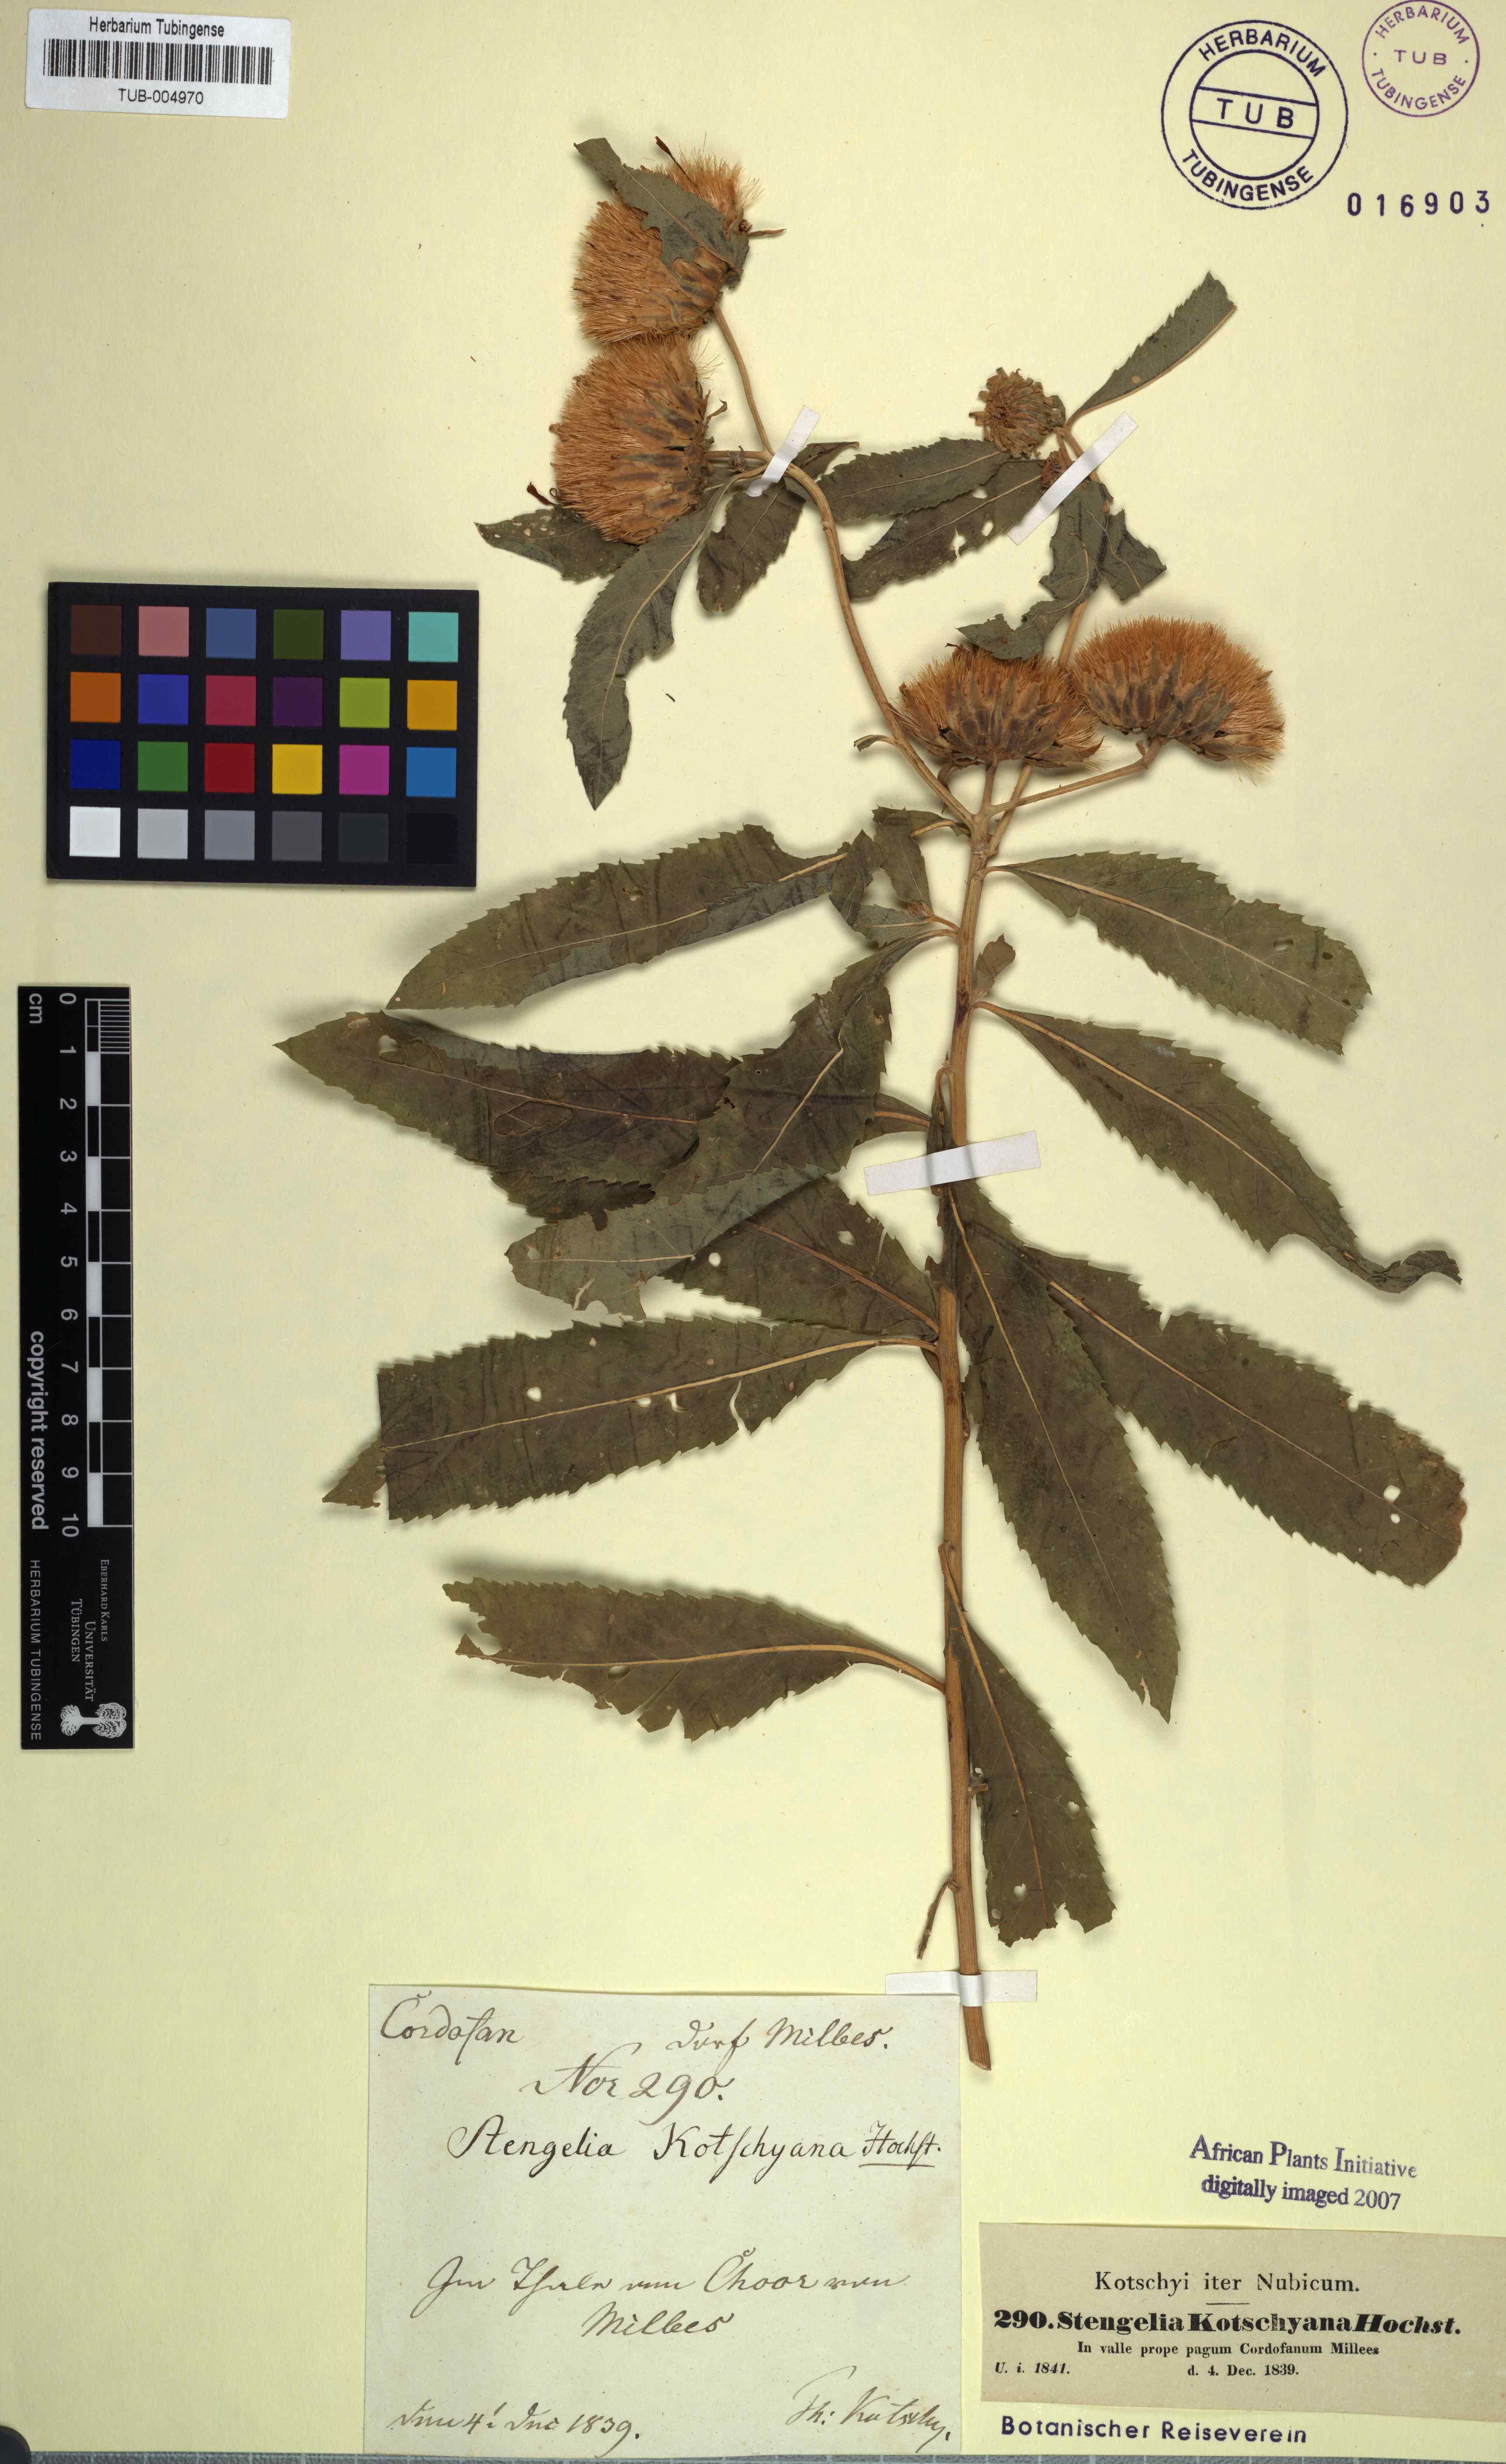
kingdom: Plantae
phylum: Tracheophyta
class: Magnoliopsida
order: Asterales
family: Asteraceae
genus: Baccharoides
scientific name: Baccharoides adoensis
